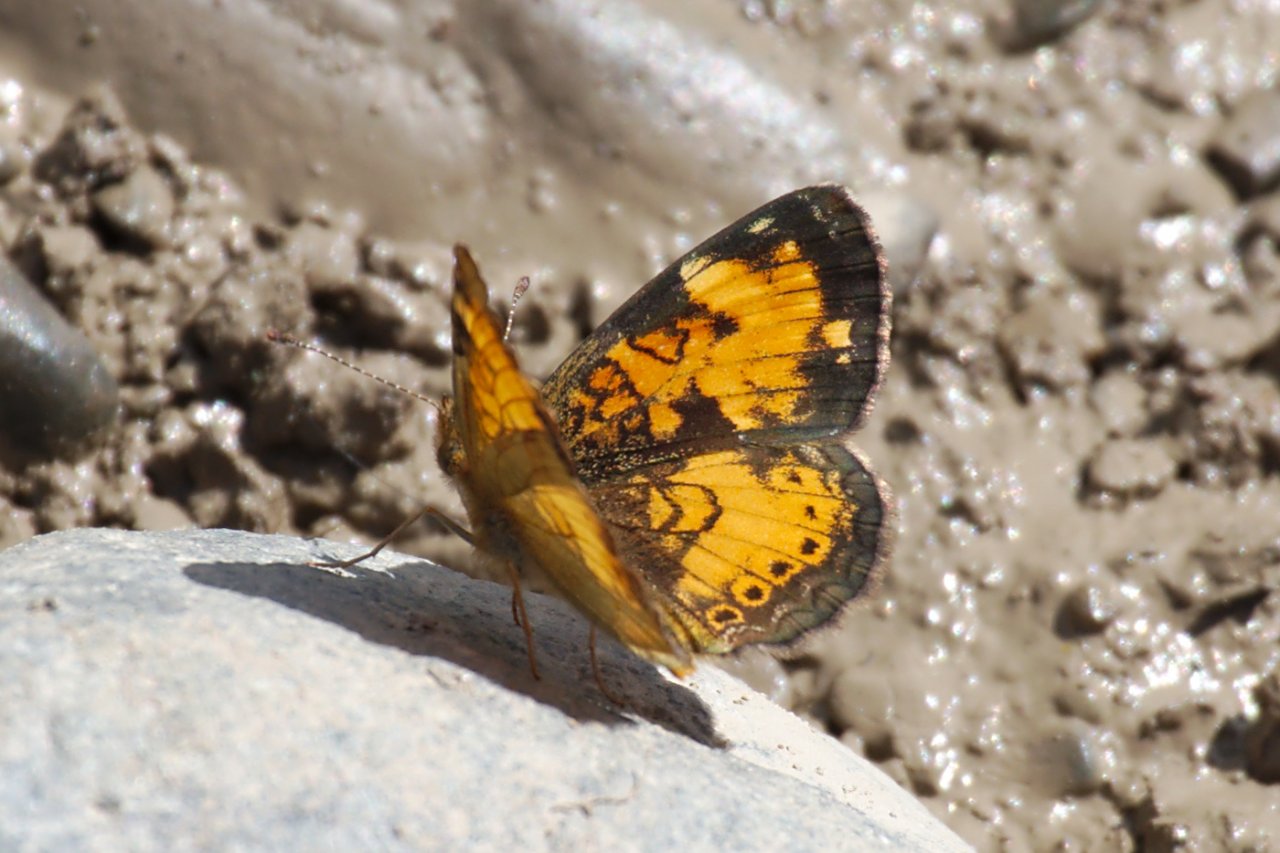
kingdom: Animalia
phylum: Arthropoda
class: Insecta
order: Lepidoptera
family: Nymphalidae
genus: Phyciodes
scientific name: Phyciodes tharos
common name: Northern Crescent
